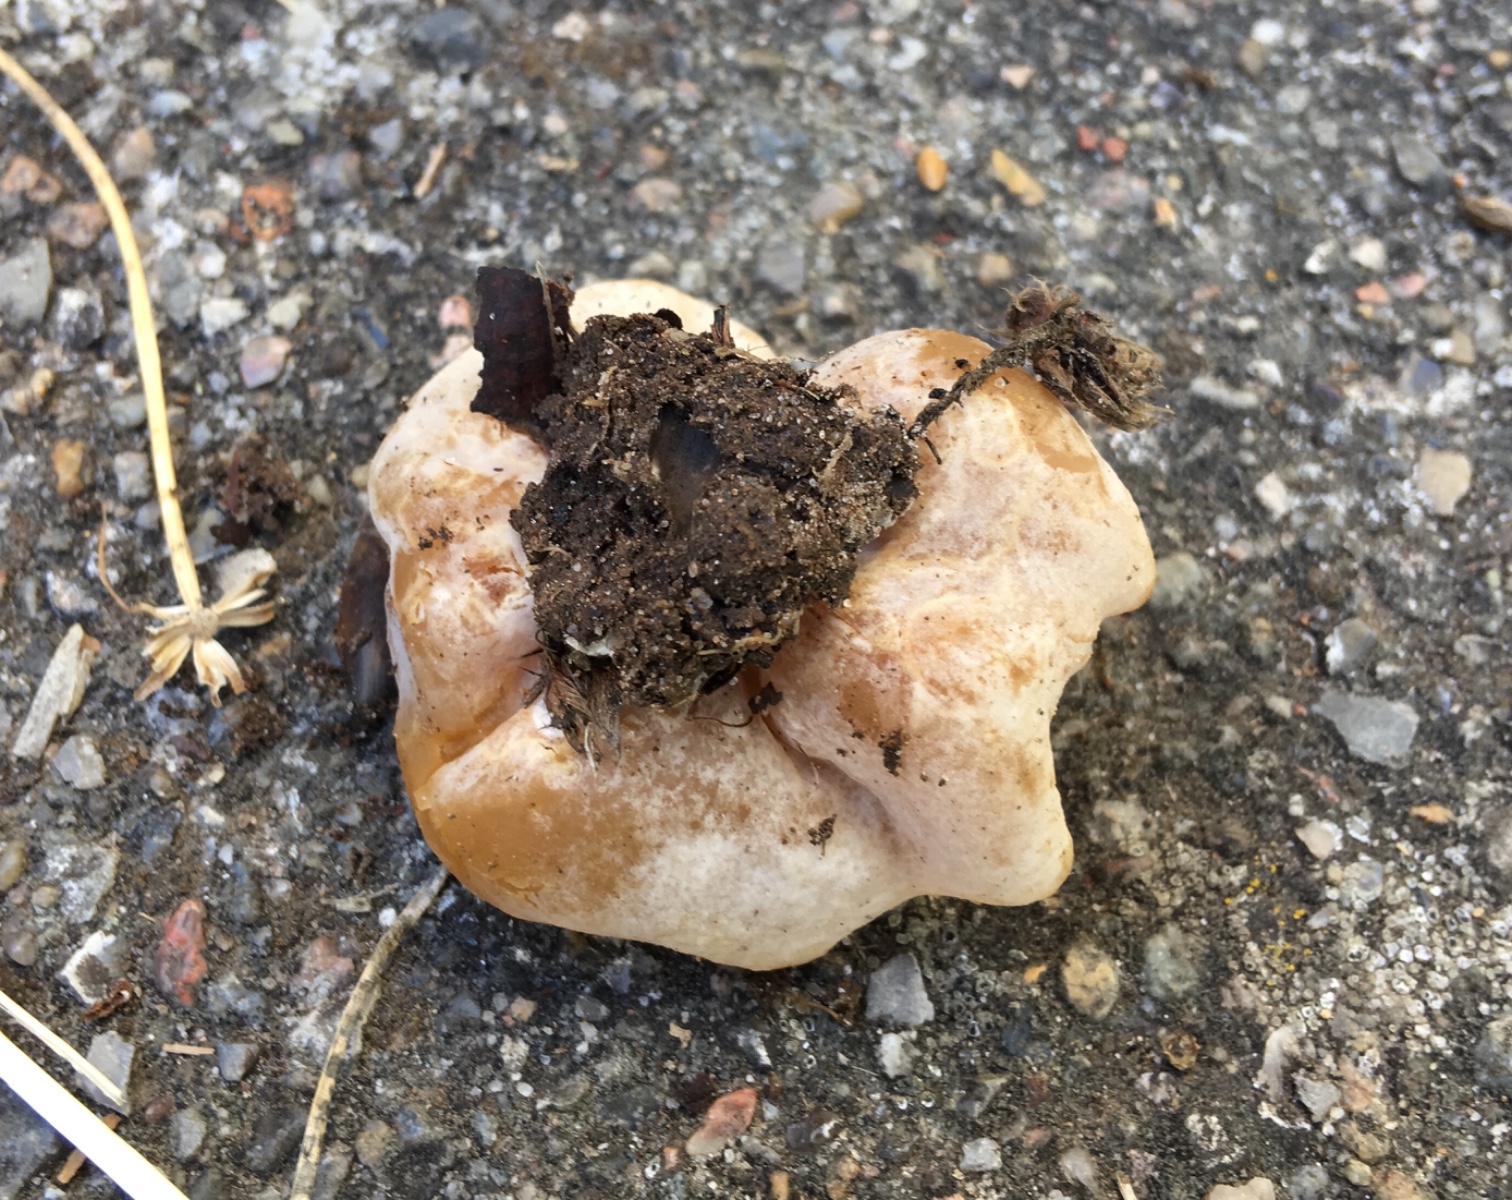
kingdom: Fungi
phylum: Ascomycota
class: Pezizomycetes
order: Pezizales
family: Pezizaceae
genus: Peziza
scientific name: Peziza
